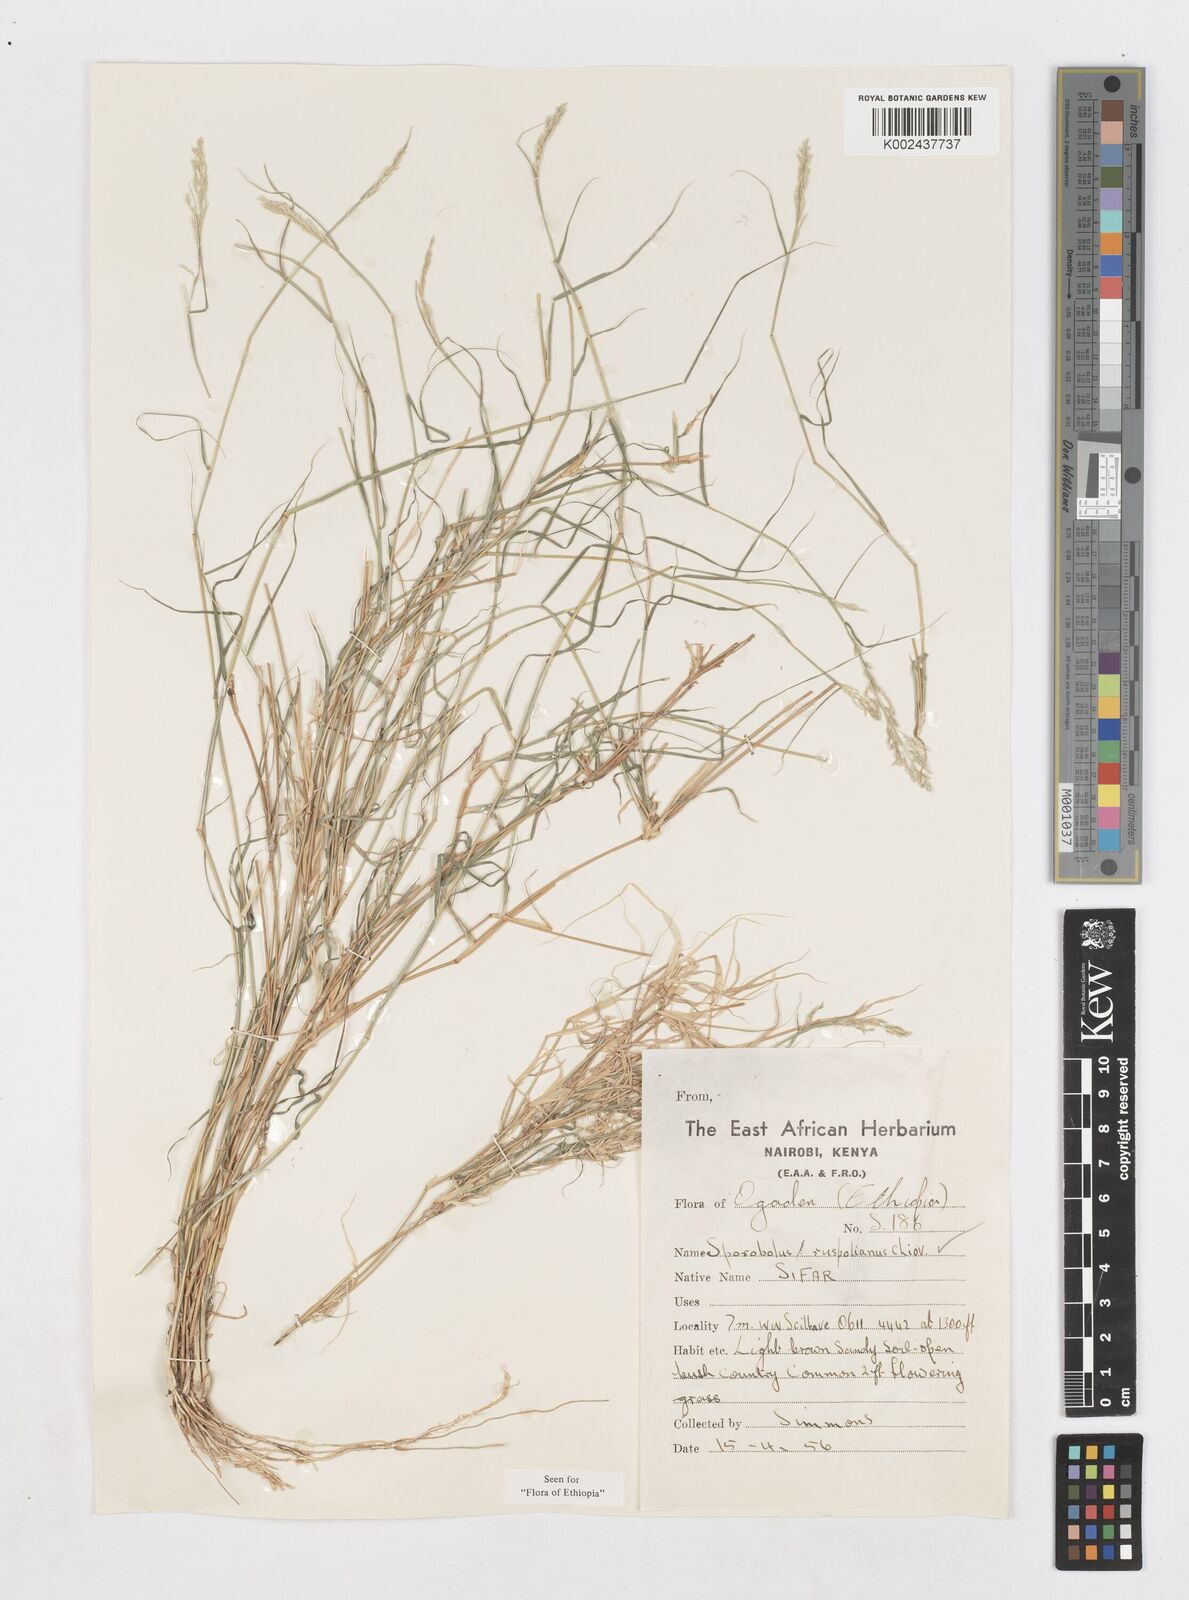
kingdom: Plantae
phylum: Tracheophyta
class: Liliopsida
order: Poales
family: Poaceae
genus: Sporobolus
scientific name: Sporobolus ruspolianus
